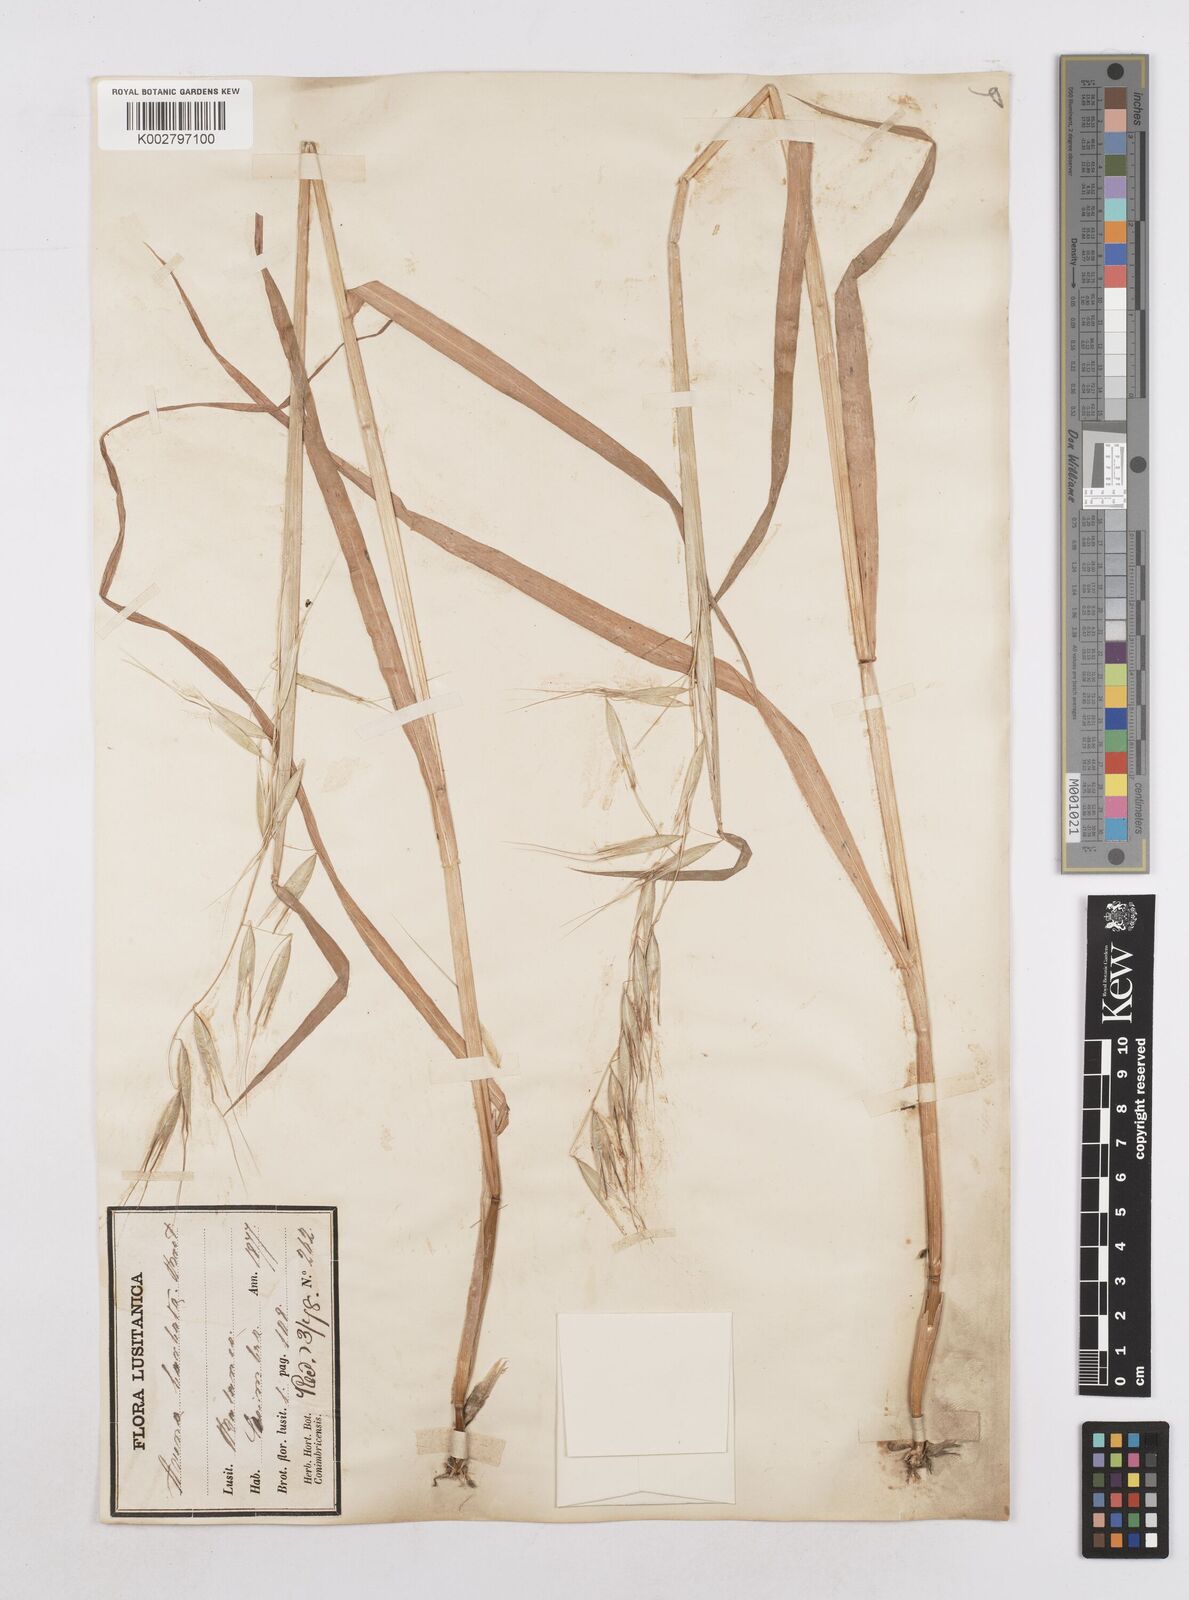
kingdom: Plantae
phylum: Tracheophyta
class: Liliopsida
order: Poales
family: Poaceae
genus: Avena
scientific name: Avena
